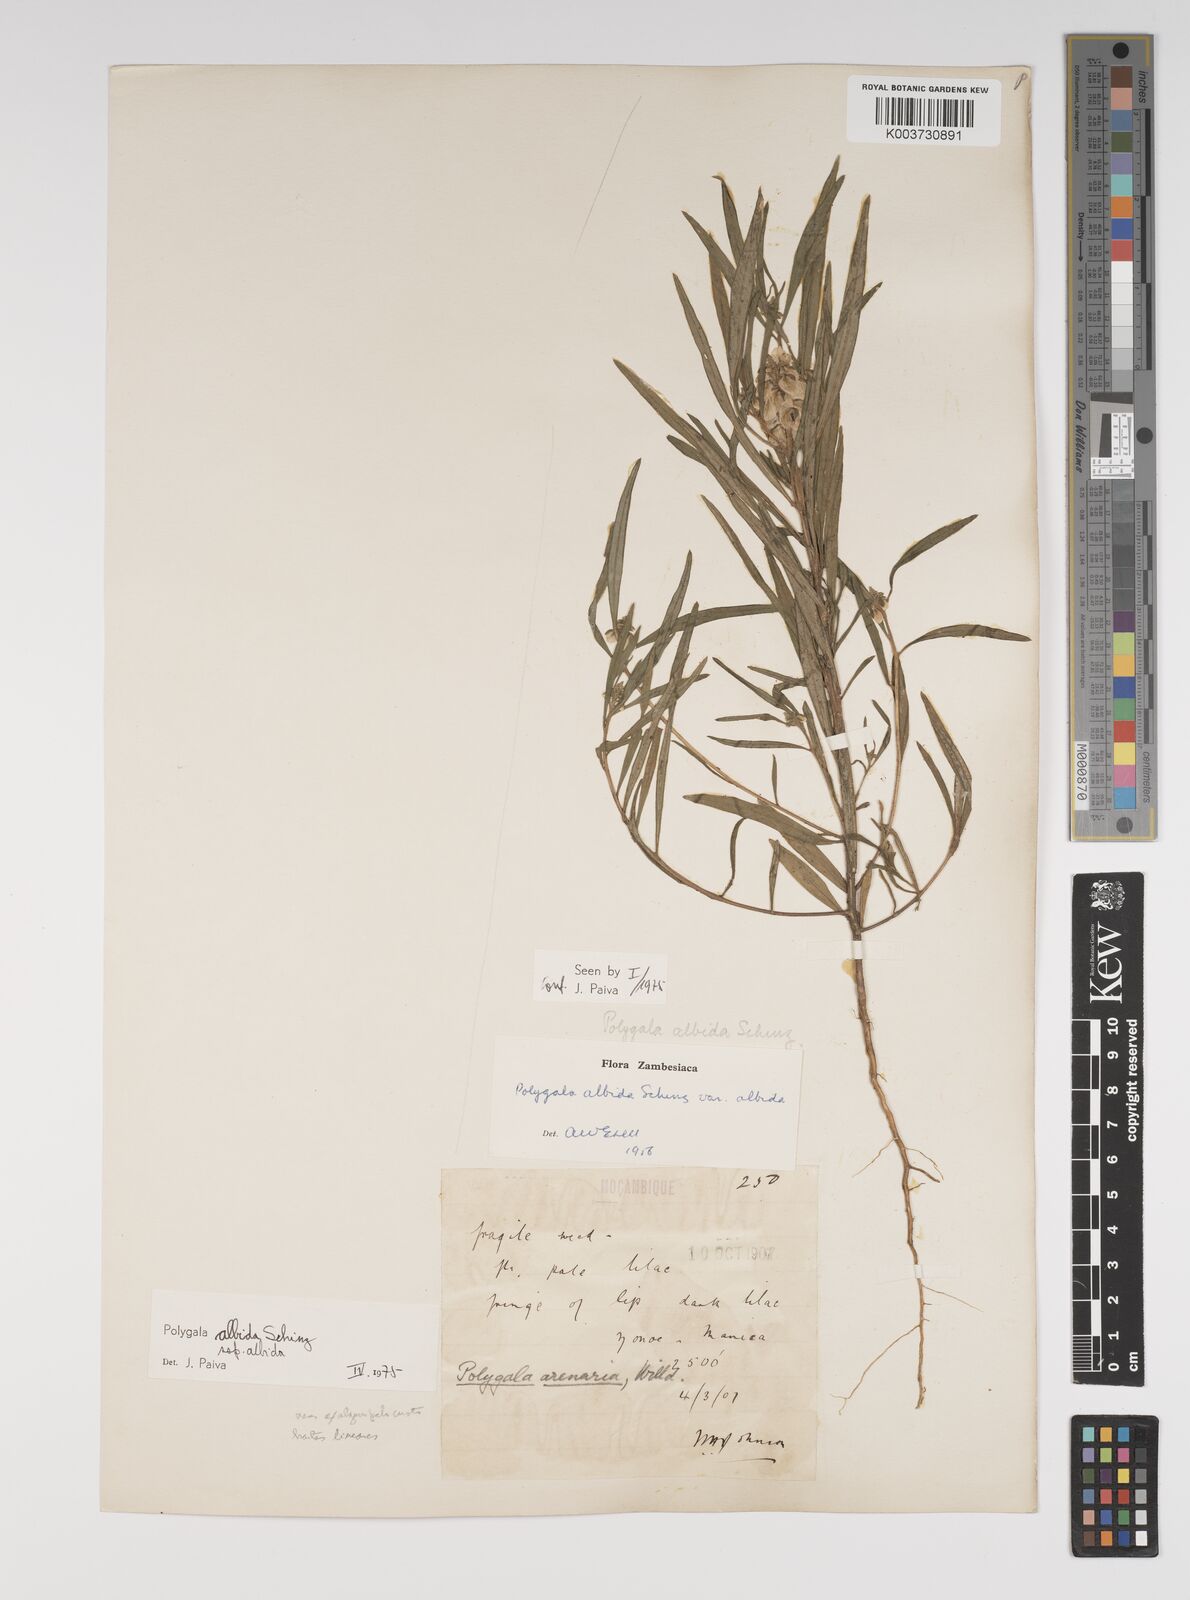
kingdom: Plantae
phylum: Tracheophyta
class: Magnoliopsida
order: Fabales
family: Polygalaceae
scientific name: Polygalaceae
